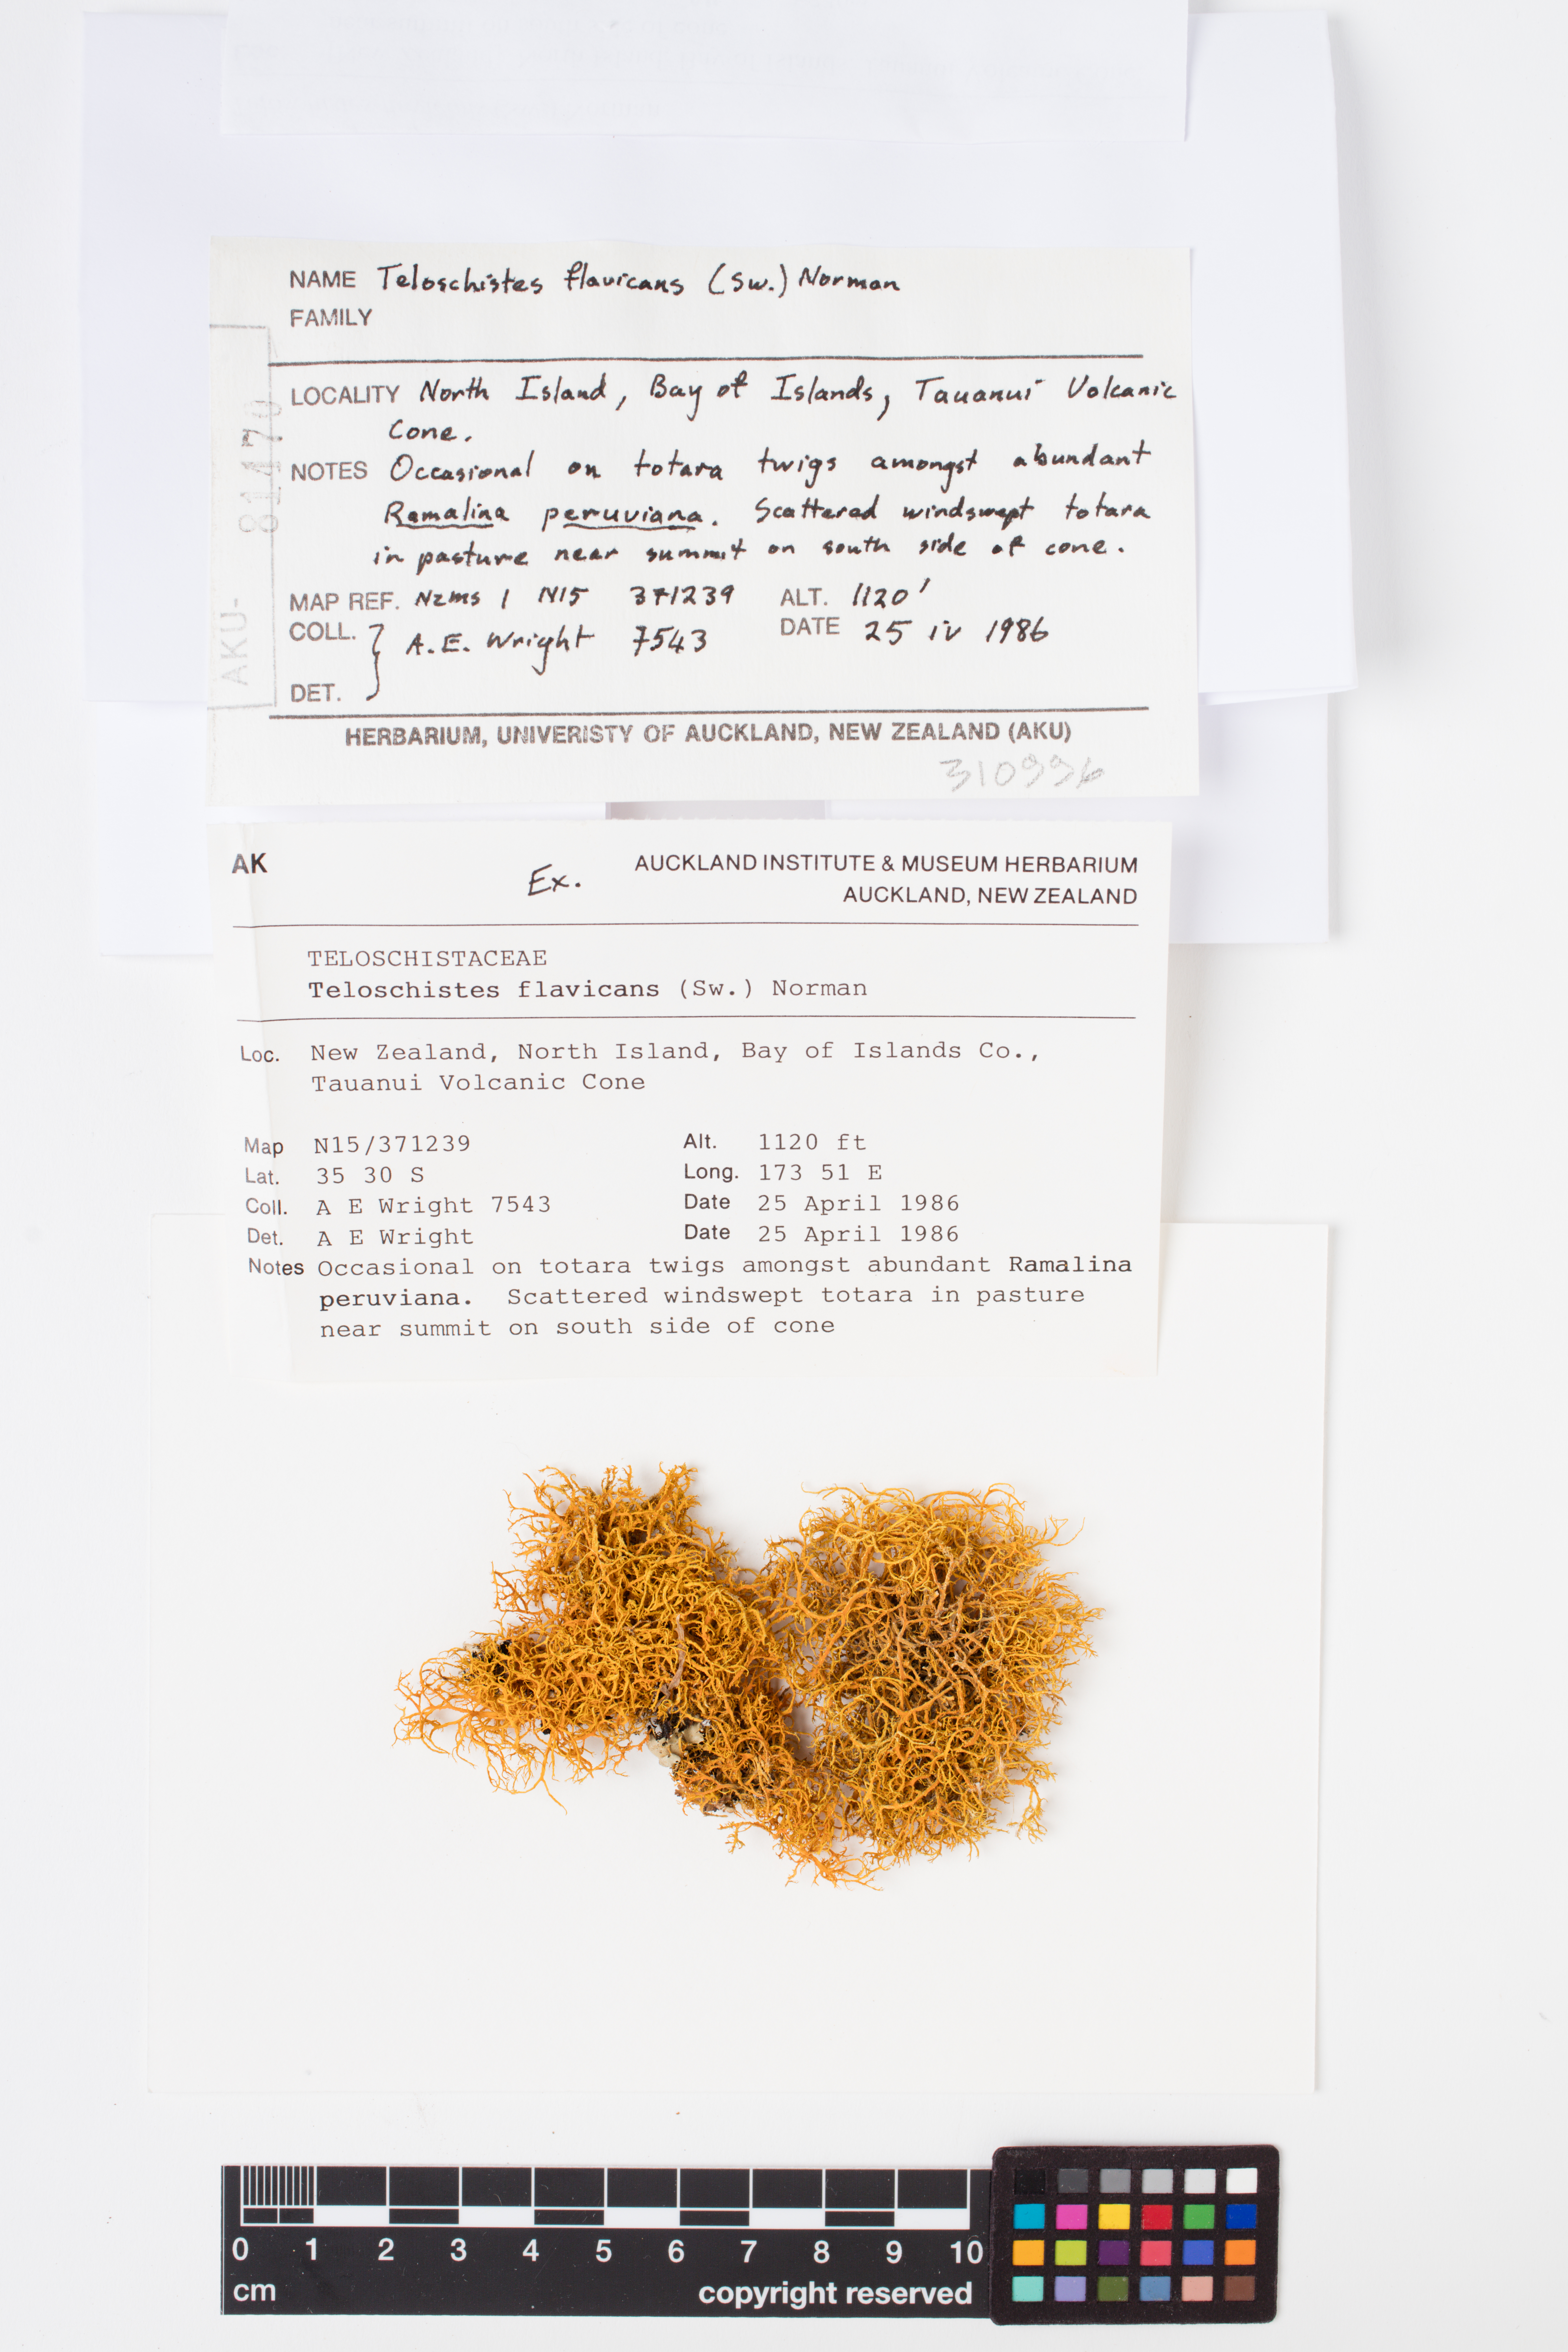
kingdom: Fungi
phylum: Ascomycota
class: Lecanoromycetes
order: Teloschistales
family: Teloschistaceae
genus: Teloschistes
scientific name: Teloschistes flavicans
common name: Golden hair-lichen
